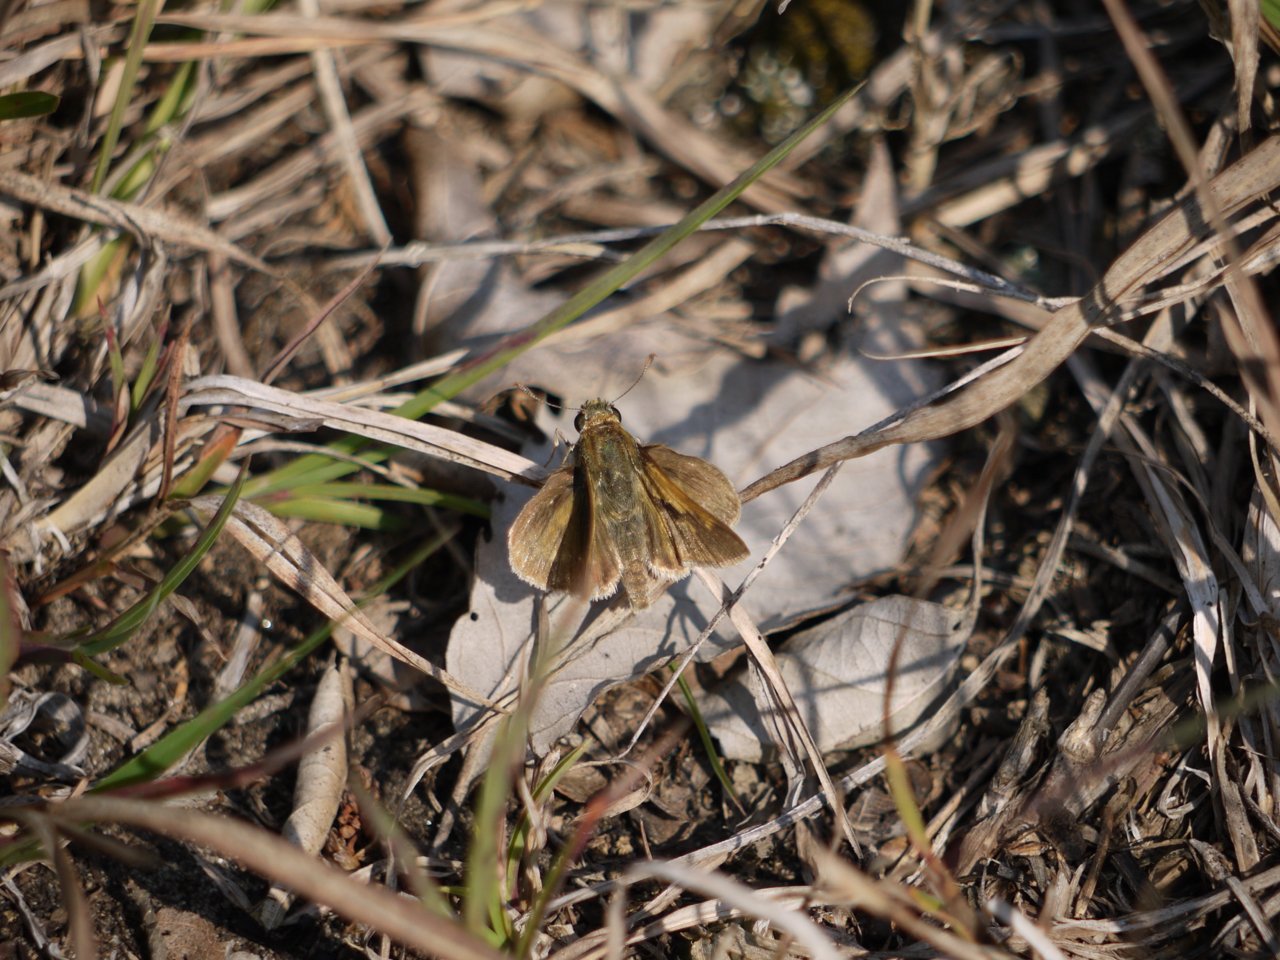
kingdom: Animalia
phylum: Arthropoda
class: Insecta
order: Lepidoptera
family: Hesperiidae
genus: Polites
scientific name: Polites themistocles
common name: Tawny-edged Skipper
